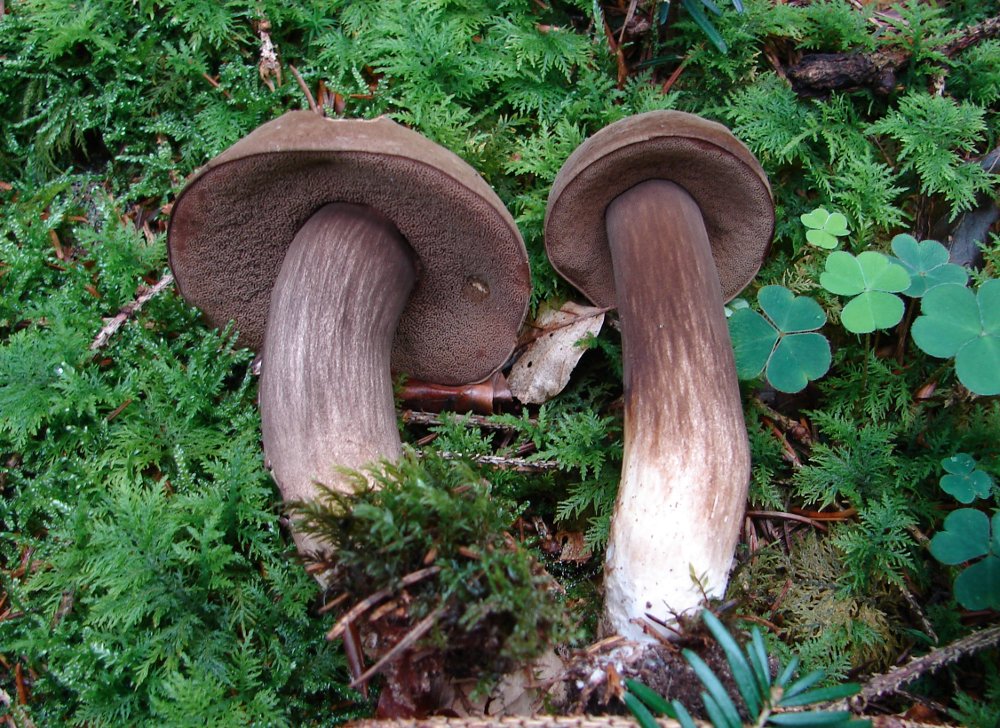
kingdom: Fungi
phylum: Basidiomycota
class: Agaricomycetes
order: Boletales
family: Boletaceae
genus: Porphyrellus
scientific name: Porphyrellus porphyrosporus
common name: sodrørhat
